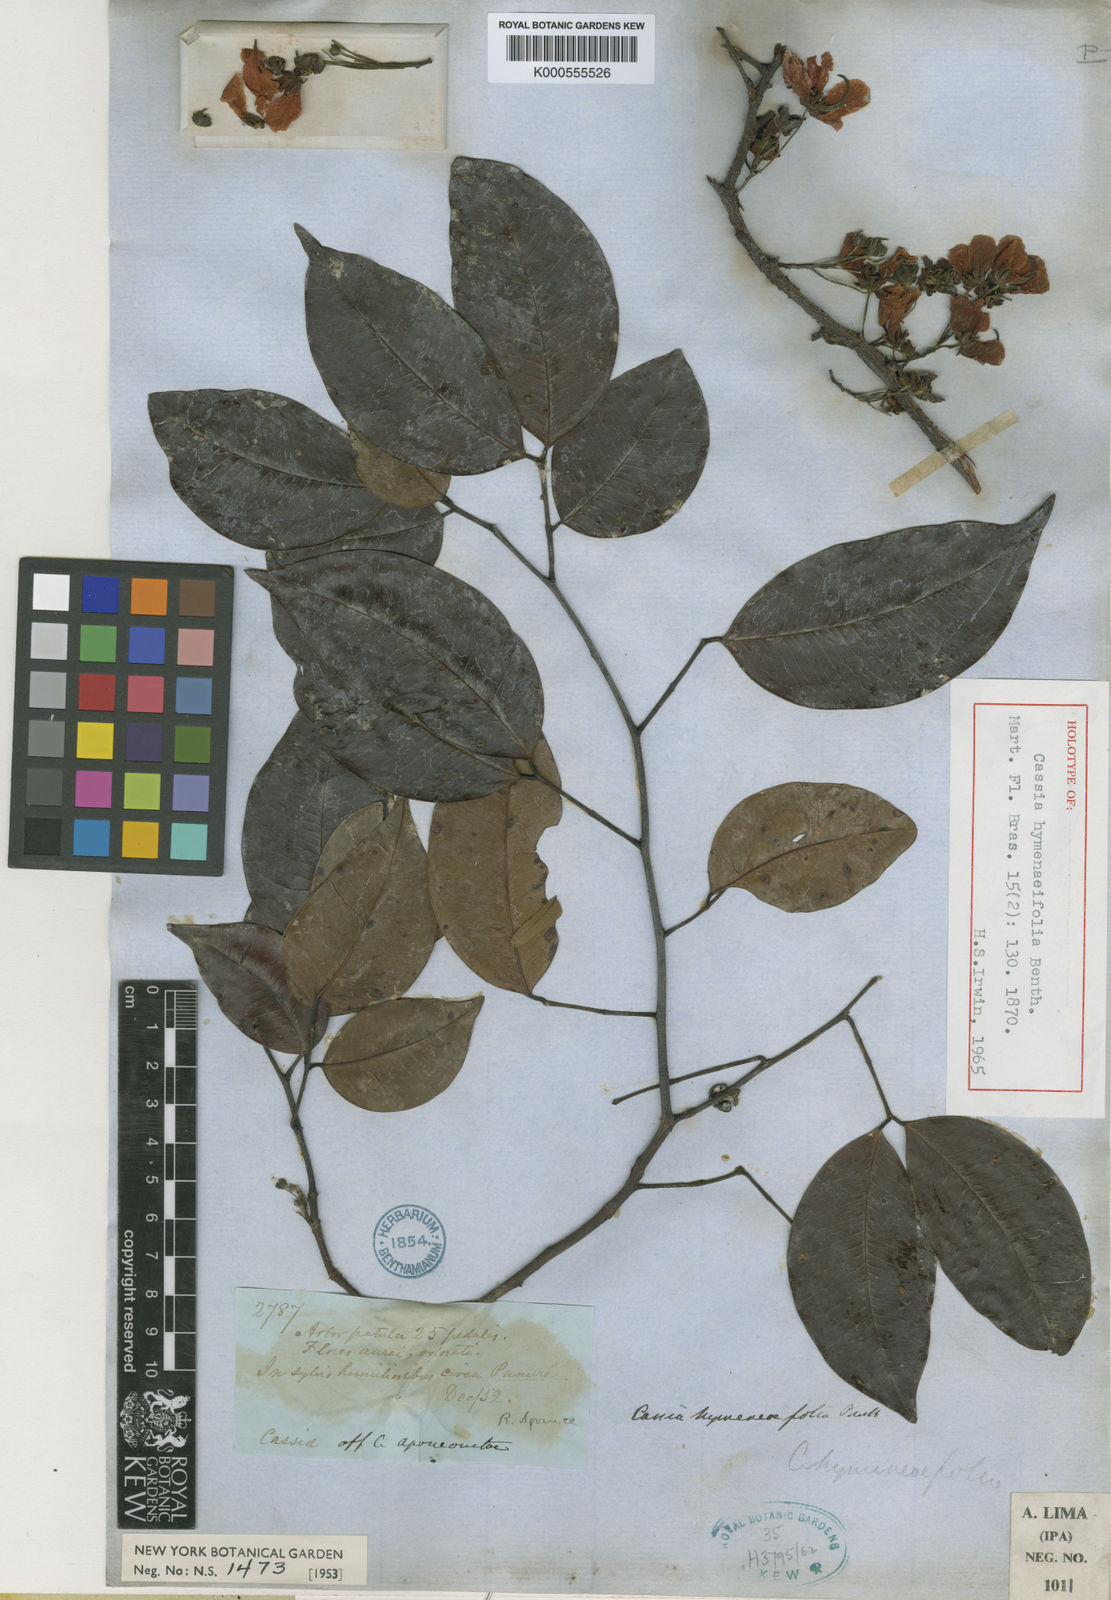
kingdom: Plantae
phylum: Tracheophyta
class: Magnoliopsida
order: Fabales
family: Fabaceae
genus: Chamaecrista
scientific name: Chamaecrista hymenaeifolia
